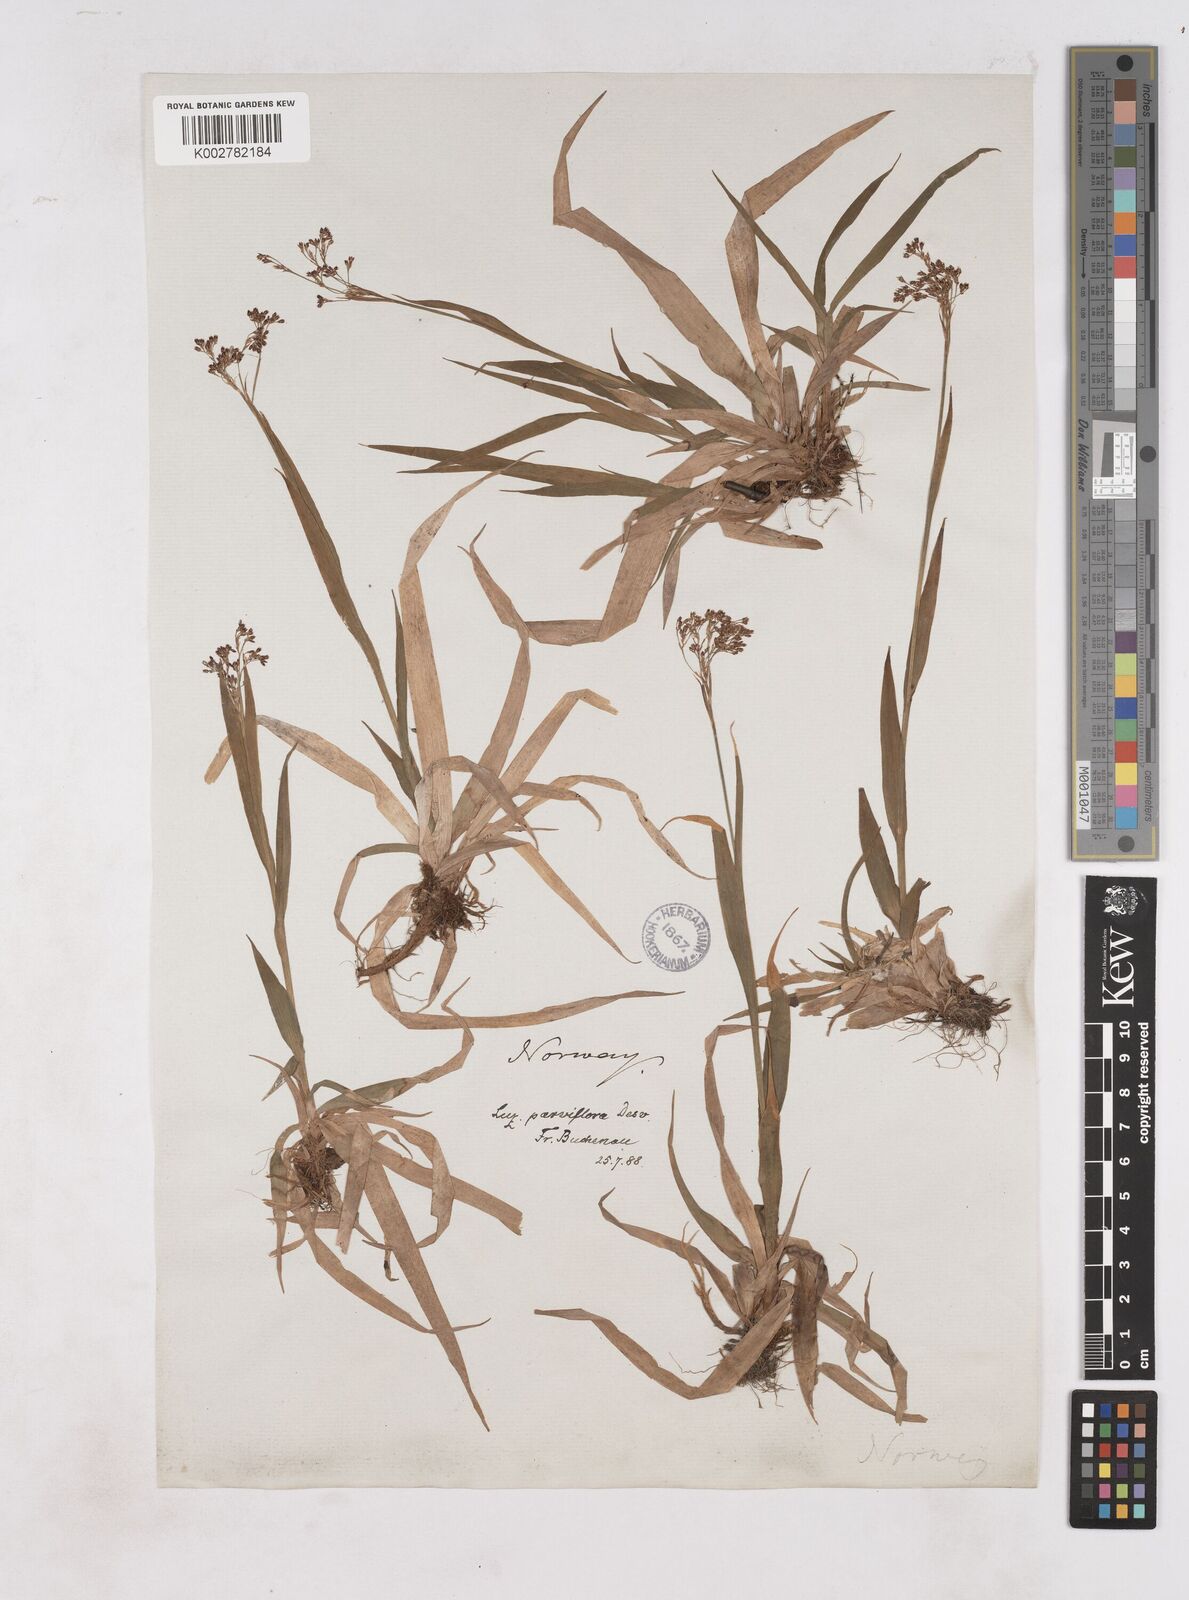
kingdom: Plantae
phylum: Tracheophyta
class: Liliopsida
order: Poales
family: Juncaceae
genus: Luzula
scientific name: Luzula parviflora
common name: Millet woodrush
